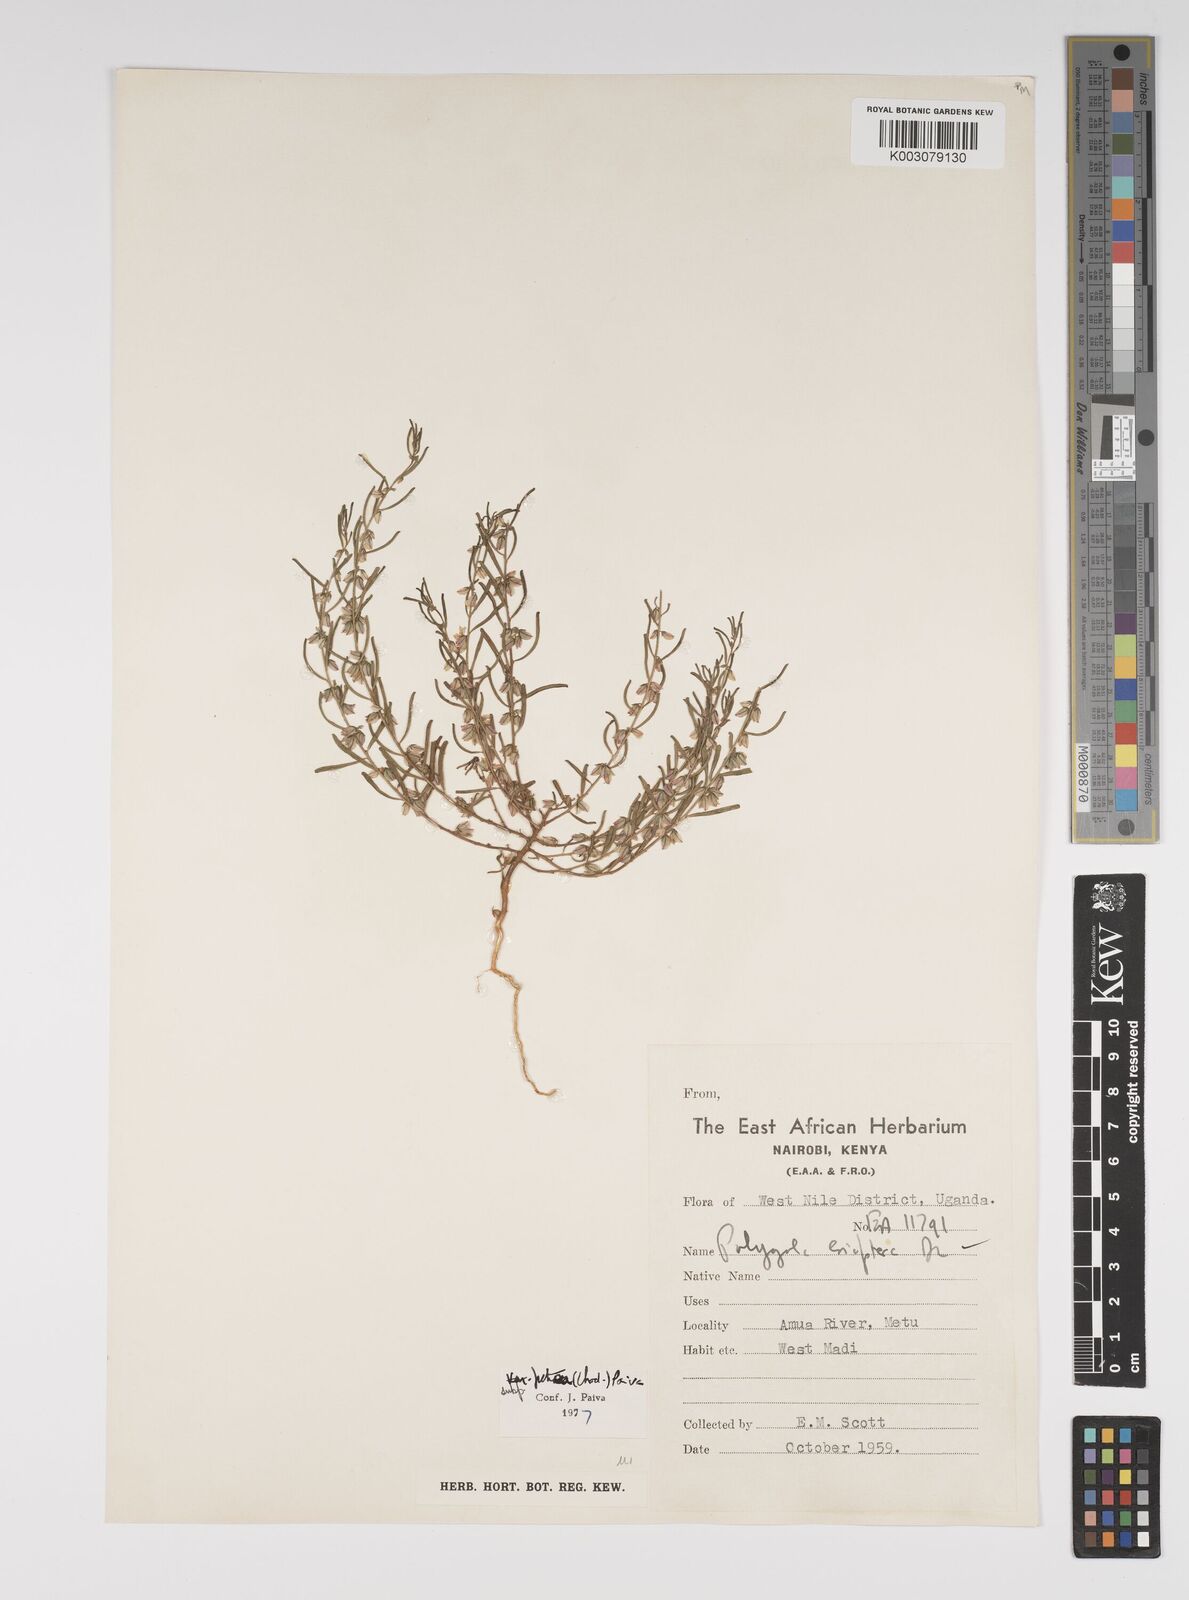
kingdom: Plantae
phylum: Tracheophyta
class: Magnoliopsida
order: Fabales
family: Polygalaceae
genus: Polygala
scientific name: Polygala erioptera
